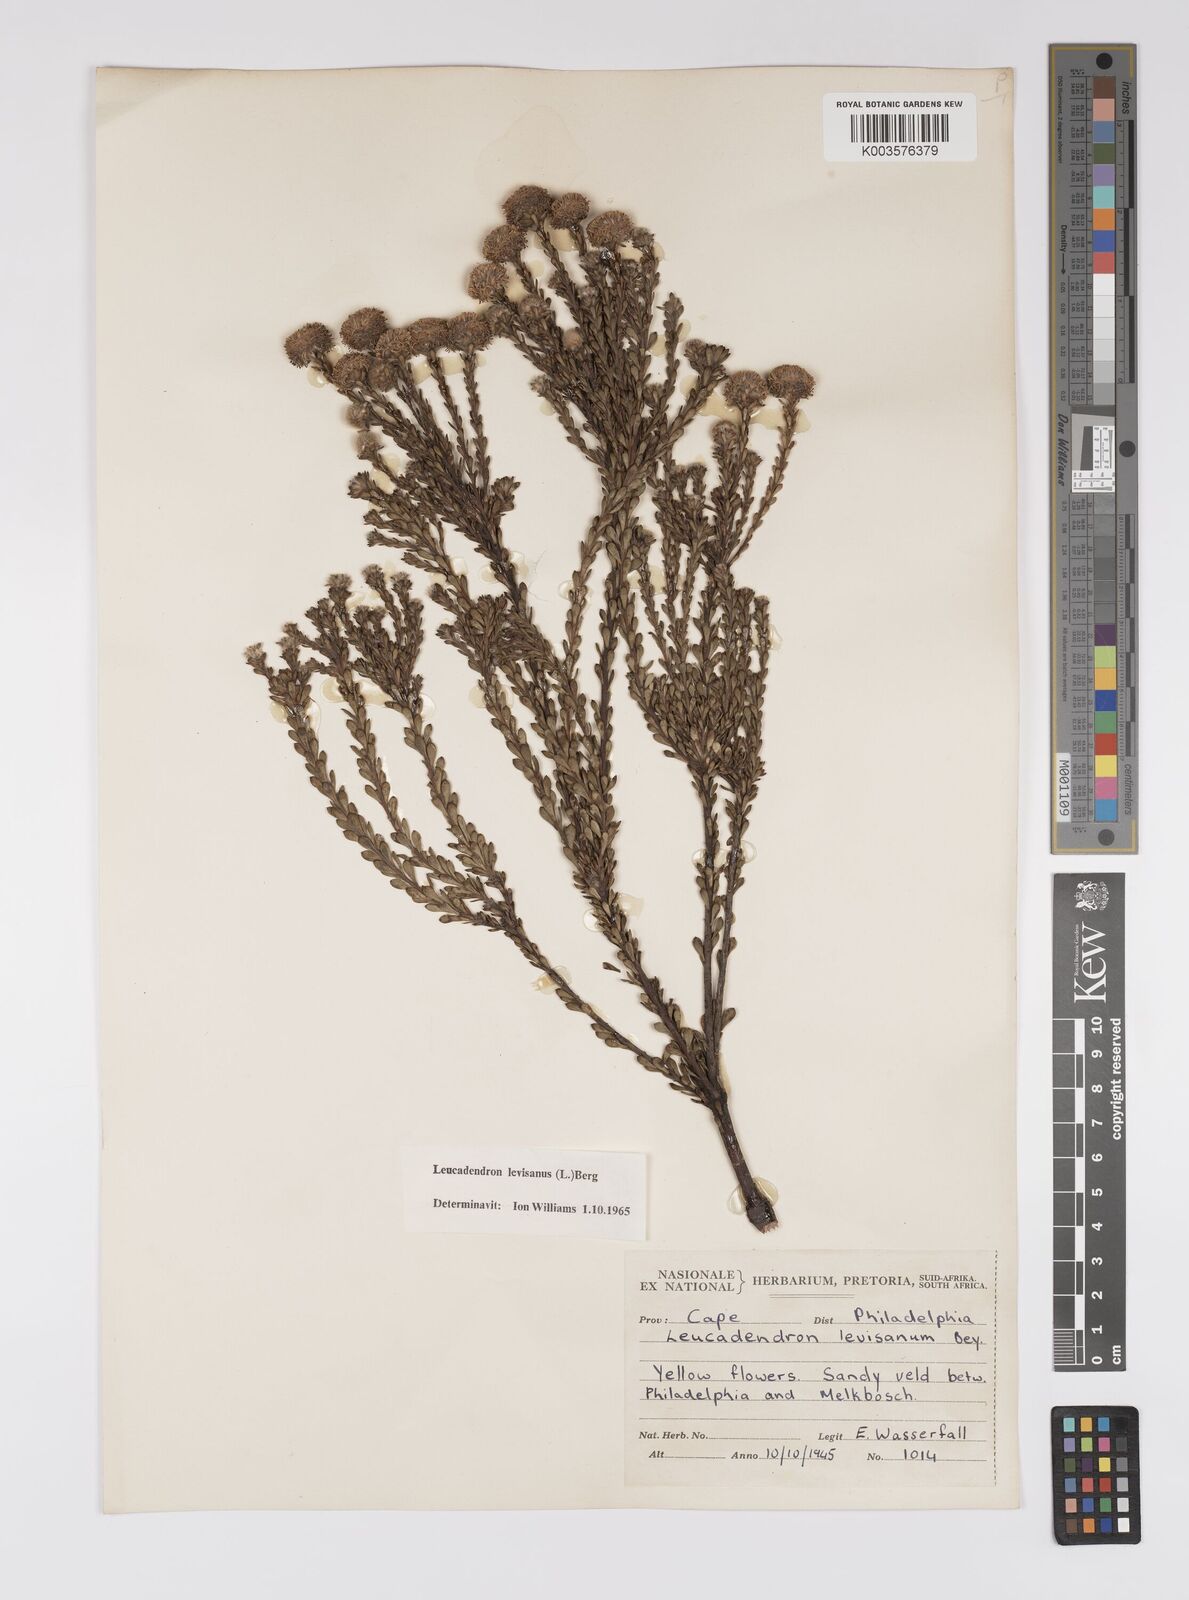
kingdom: Plantae
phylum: Tracheophyta
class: Magnoliopsida
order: Proteales
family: Proteaceae
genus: Leucadendron
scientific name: Leucadendron levisanus
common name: Cape flats conebush
